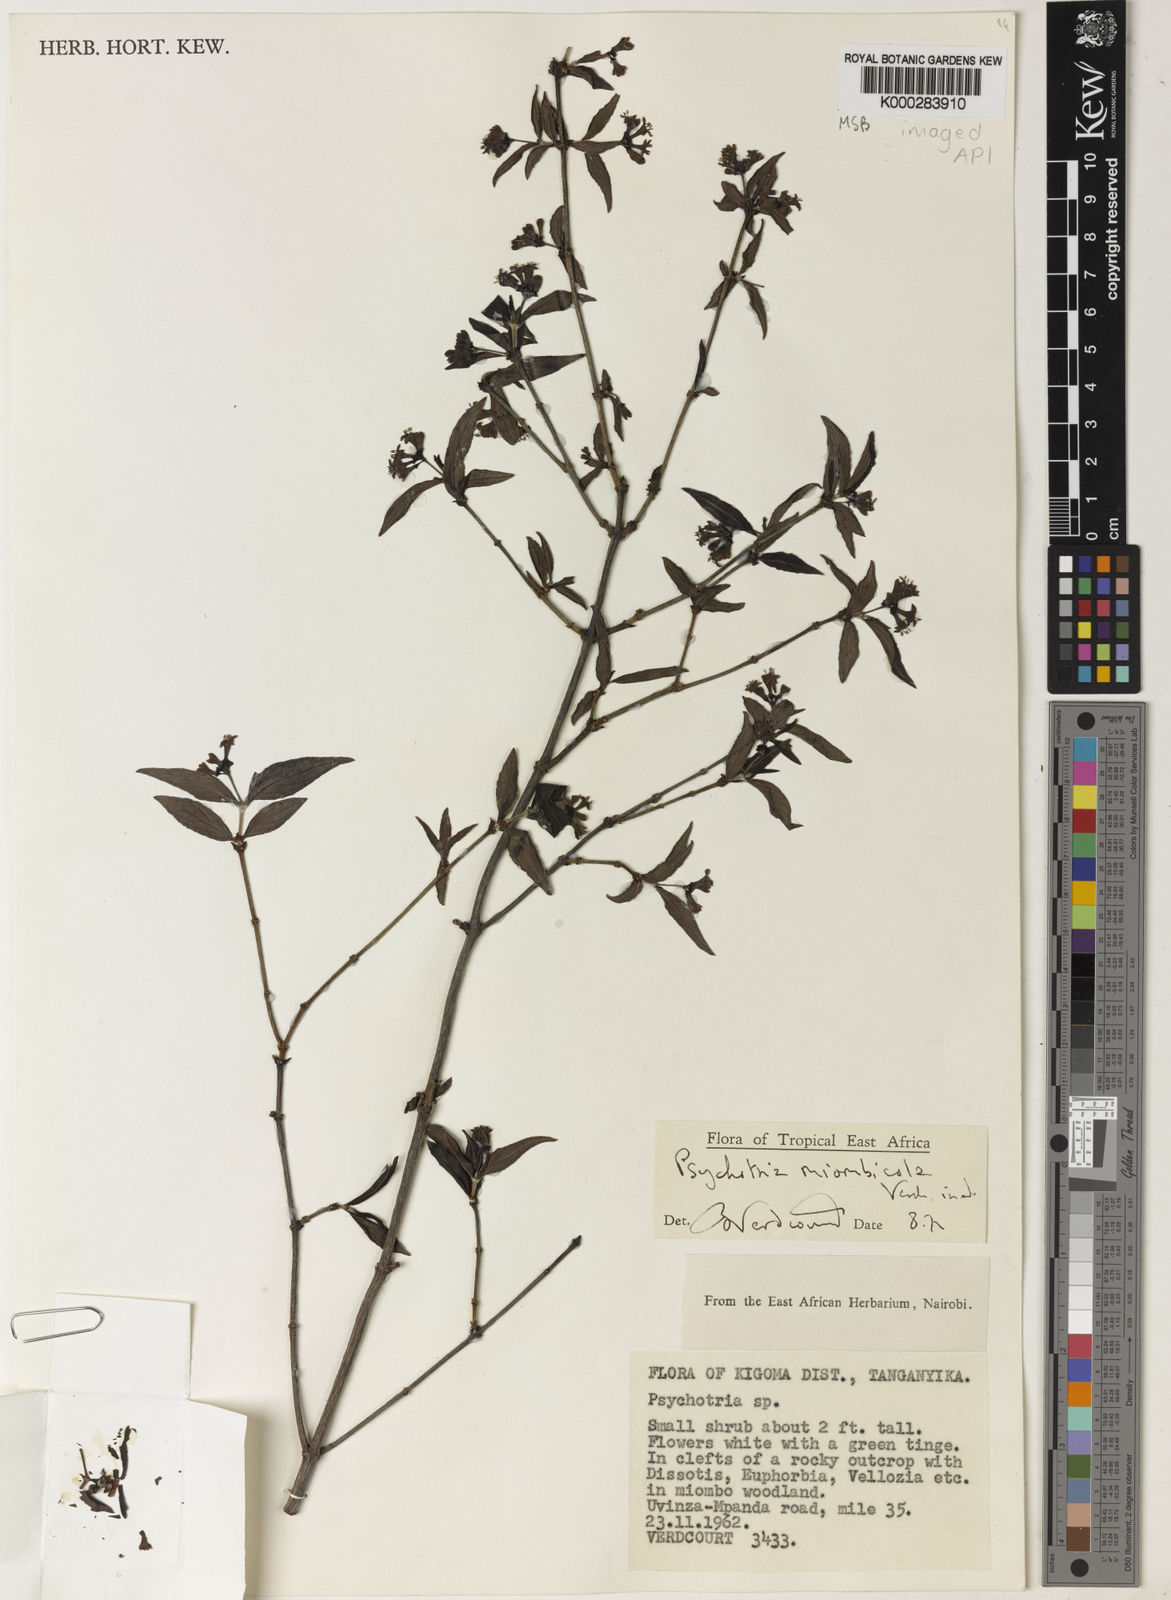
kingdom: Plantae
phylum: Tracheophyta
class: Magnoliopsida
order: Gentianales
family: Rubiaceae
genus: Psychotria
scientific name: Psychotria miombicola
